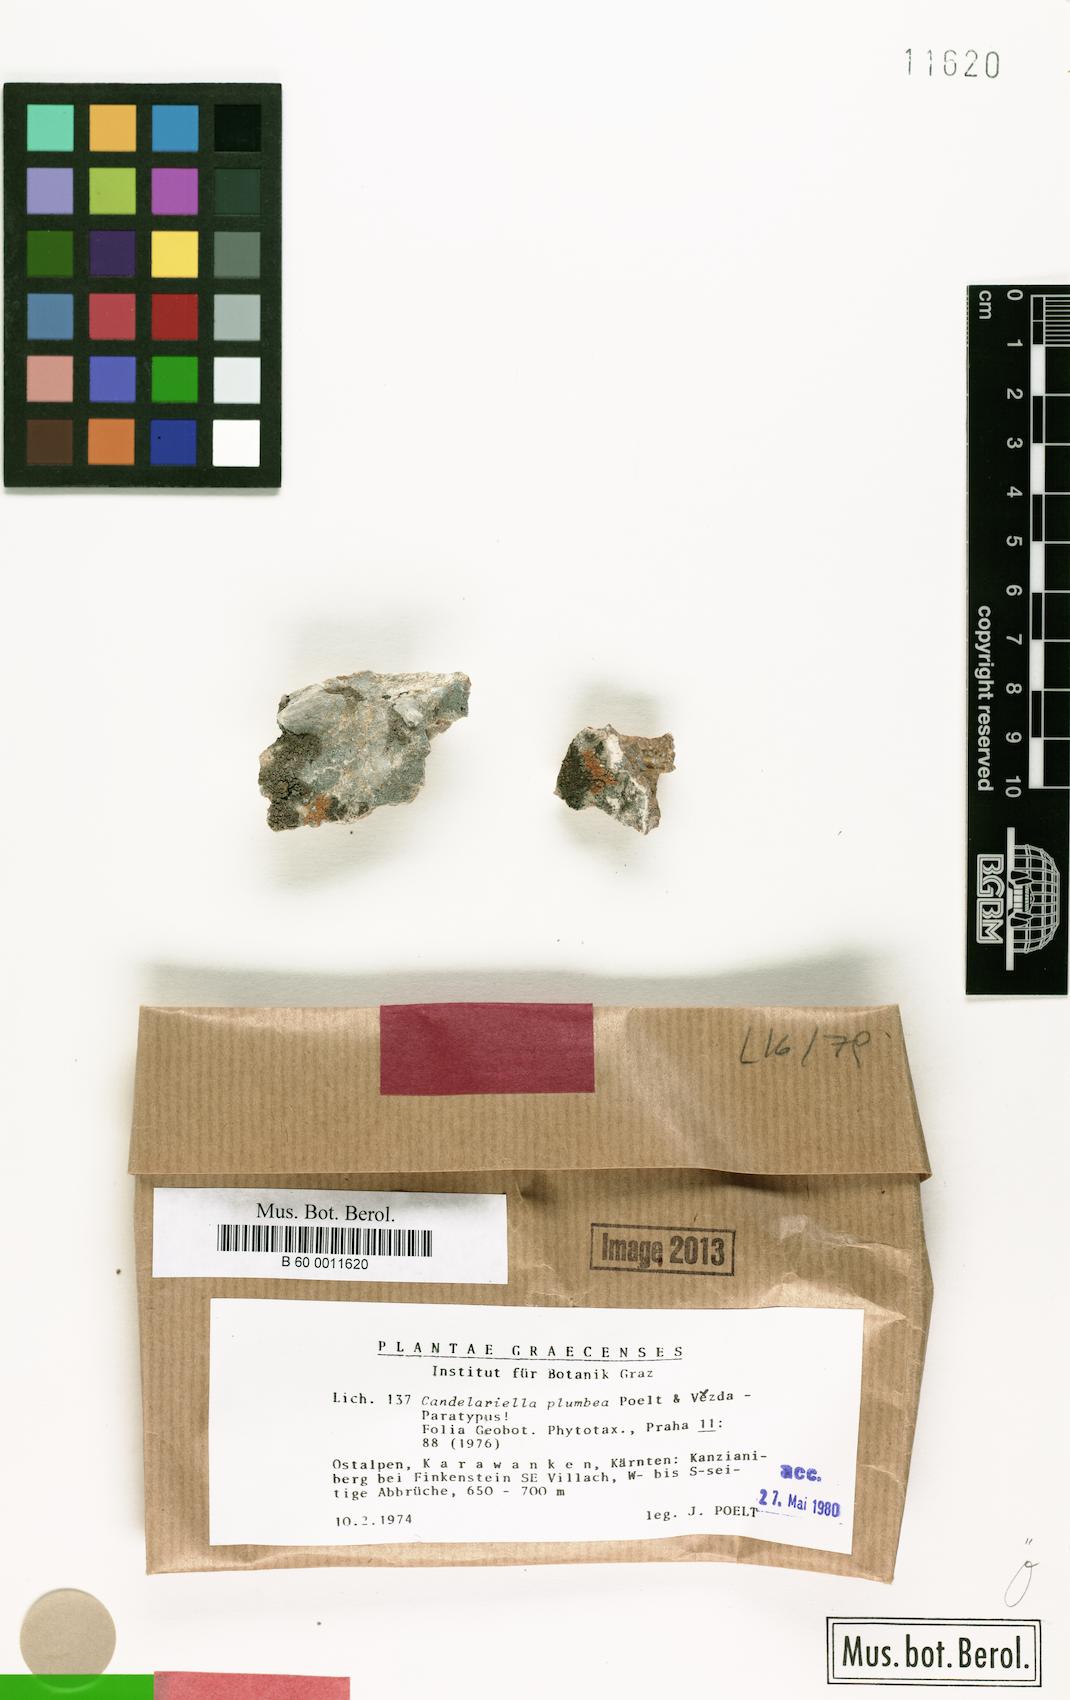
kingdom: Fungi
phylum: Ascomycota
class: Candelariomycetes
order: Candelariales
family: Candelariaceae
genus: Candelariella
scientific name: Candelariella plumbea
